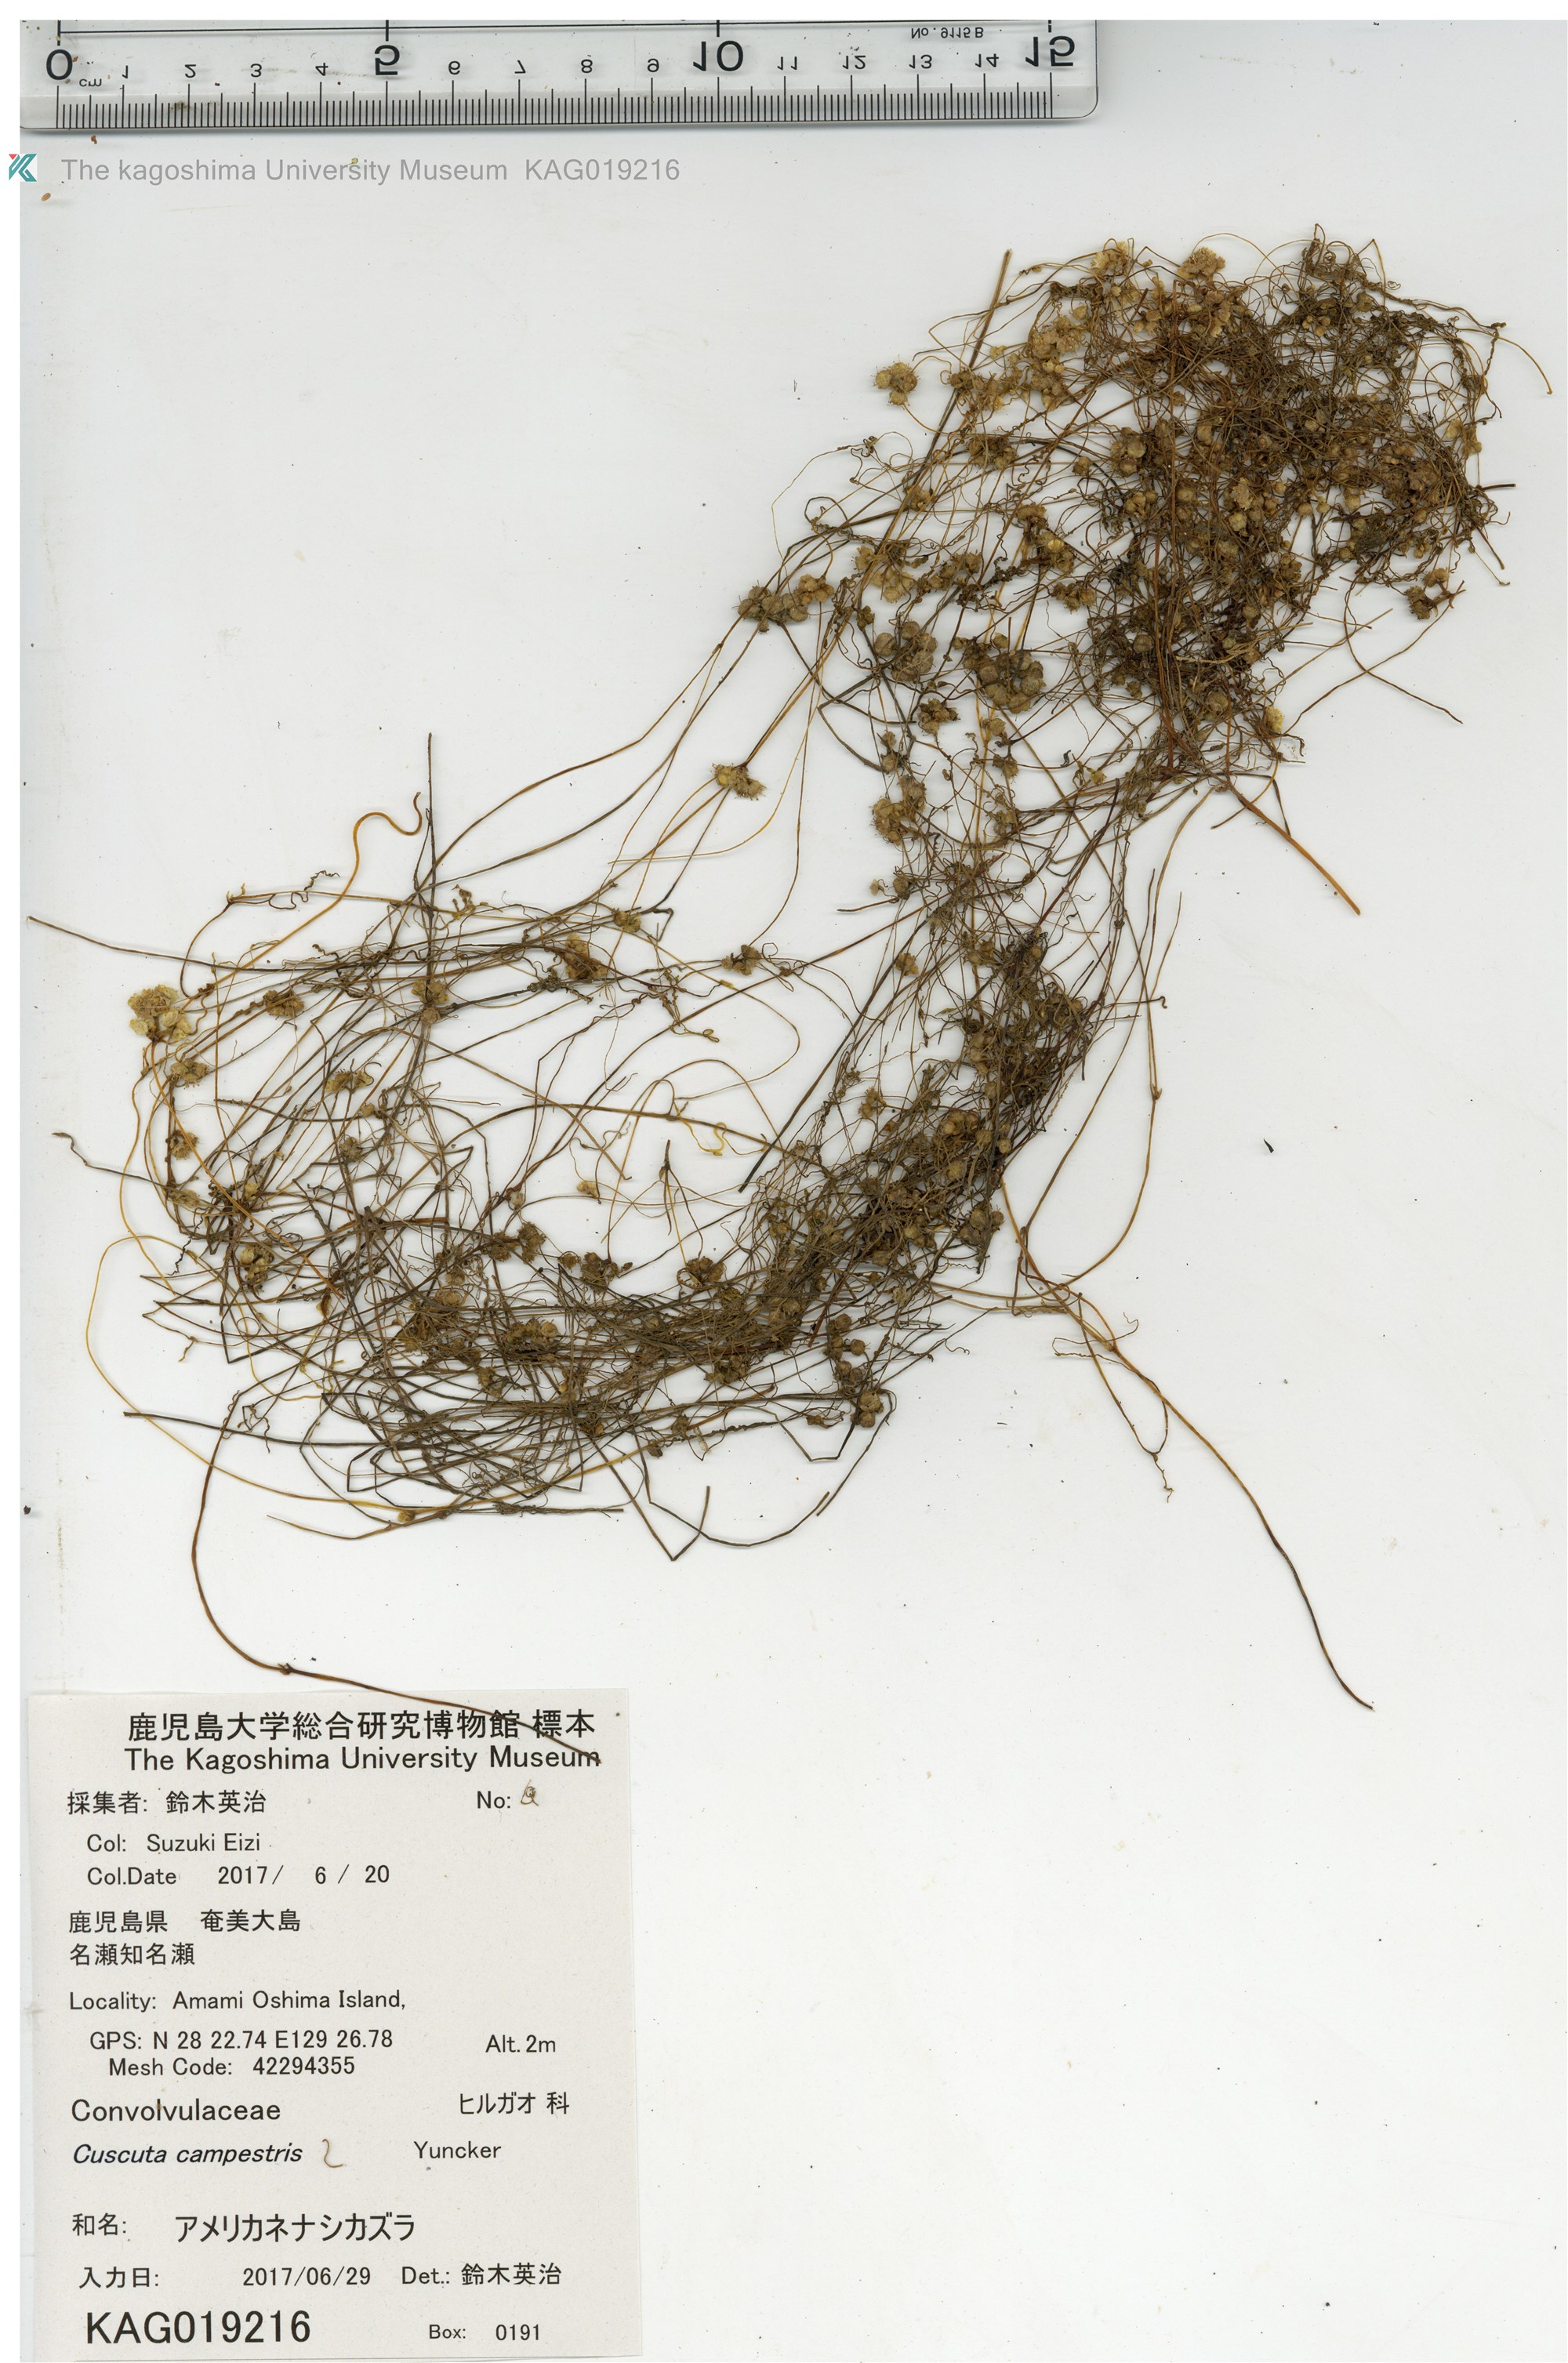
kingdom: Plantae
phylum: Tracheophyta
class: Magnoliopsida
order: Solanales
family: Convolvulaceae
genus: Cuscuta
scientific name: Cuscuta campestris
